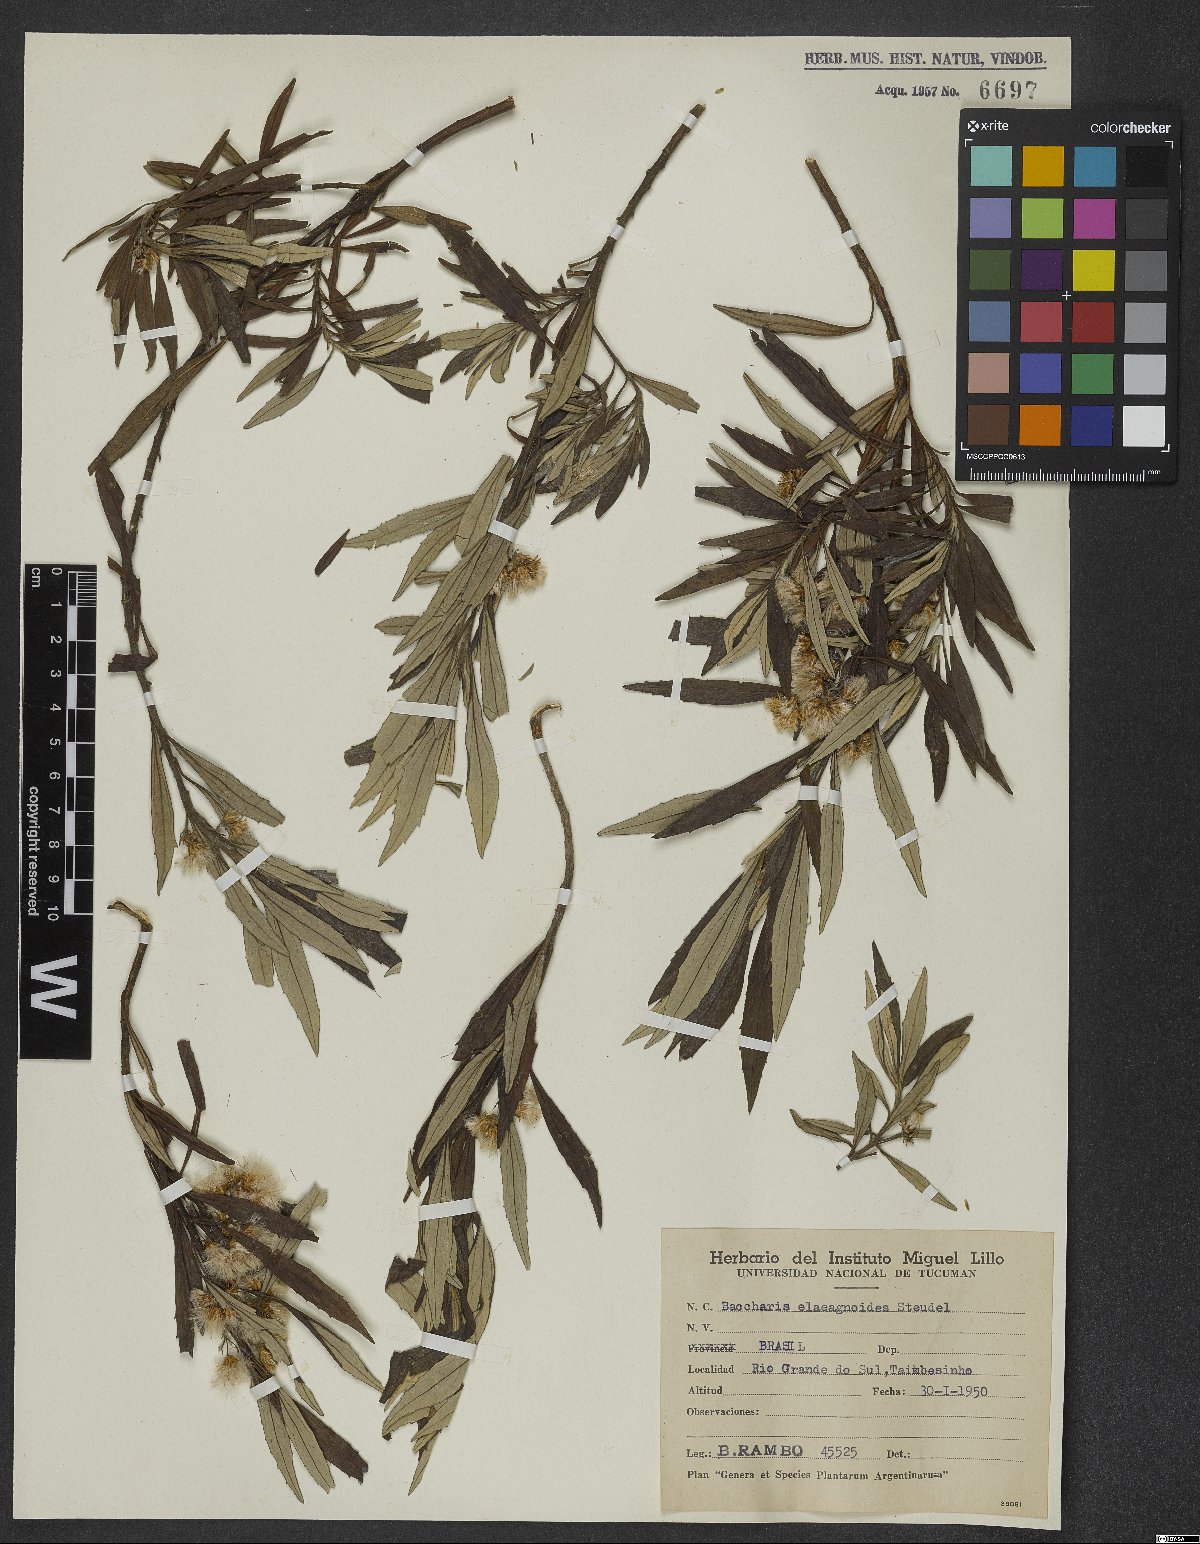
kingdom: Plantae
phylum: Tracheophyta
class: Magnoliopsida
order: Asterales
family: Asteraceae
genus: Baccharis
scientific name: Baccharis montana
